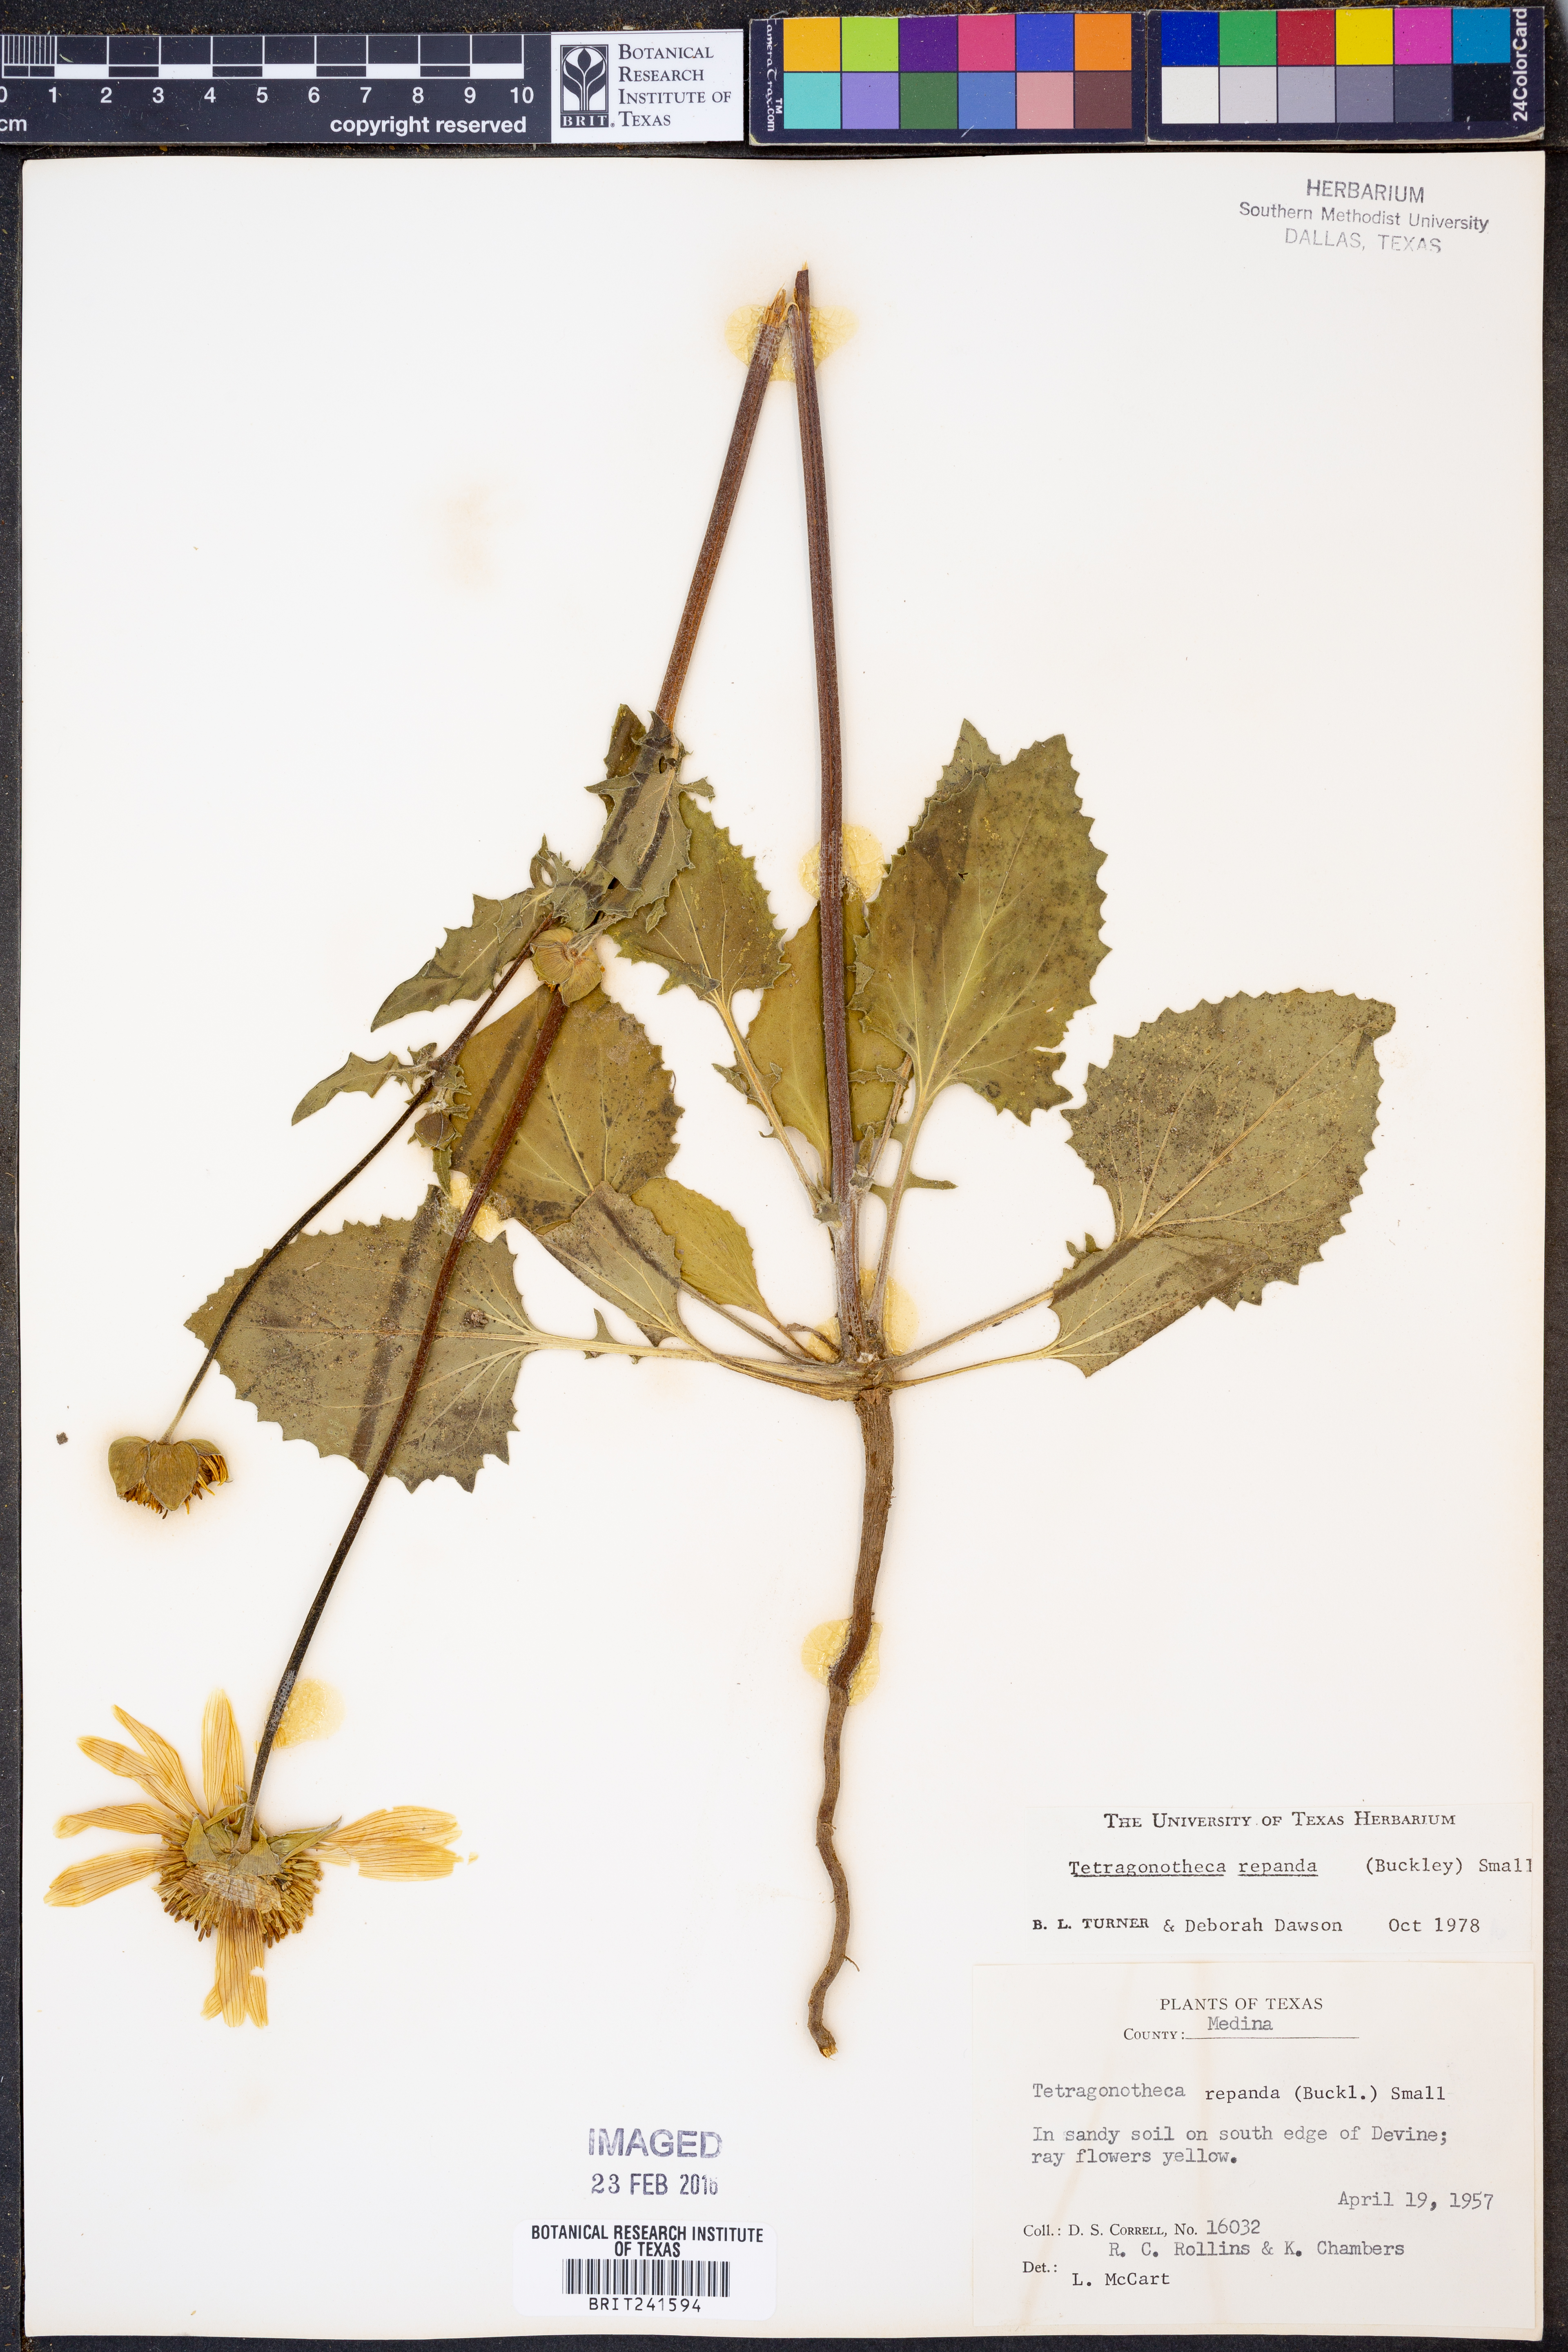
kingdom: Plantae
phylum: Tracheophyta
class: Magnoliopsida
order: Asterales
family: Asteraceae
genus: Tetragonotheca
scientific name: Tetragonotheca repanda
